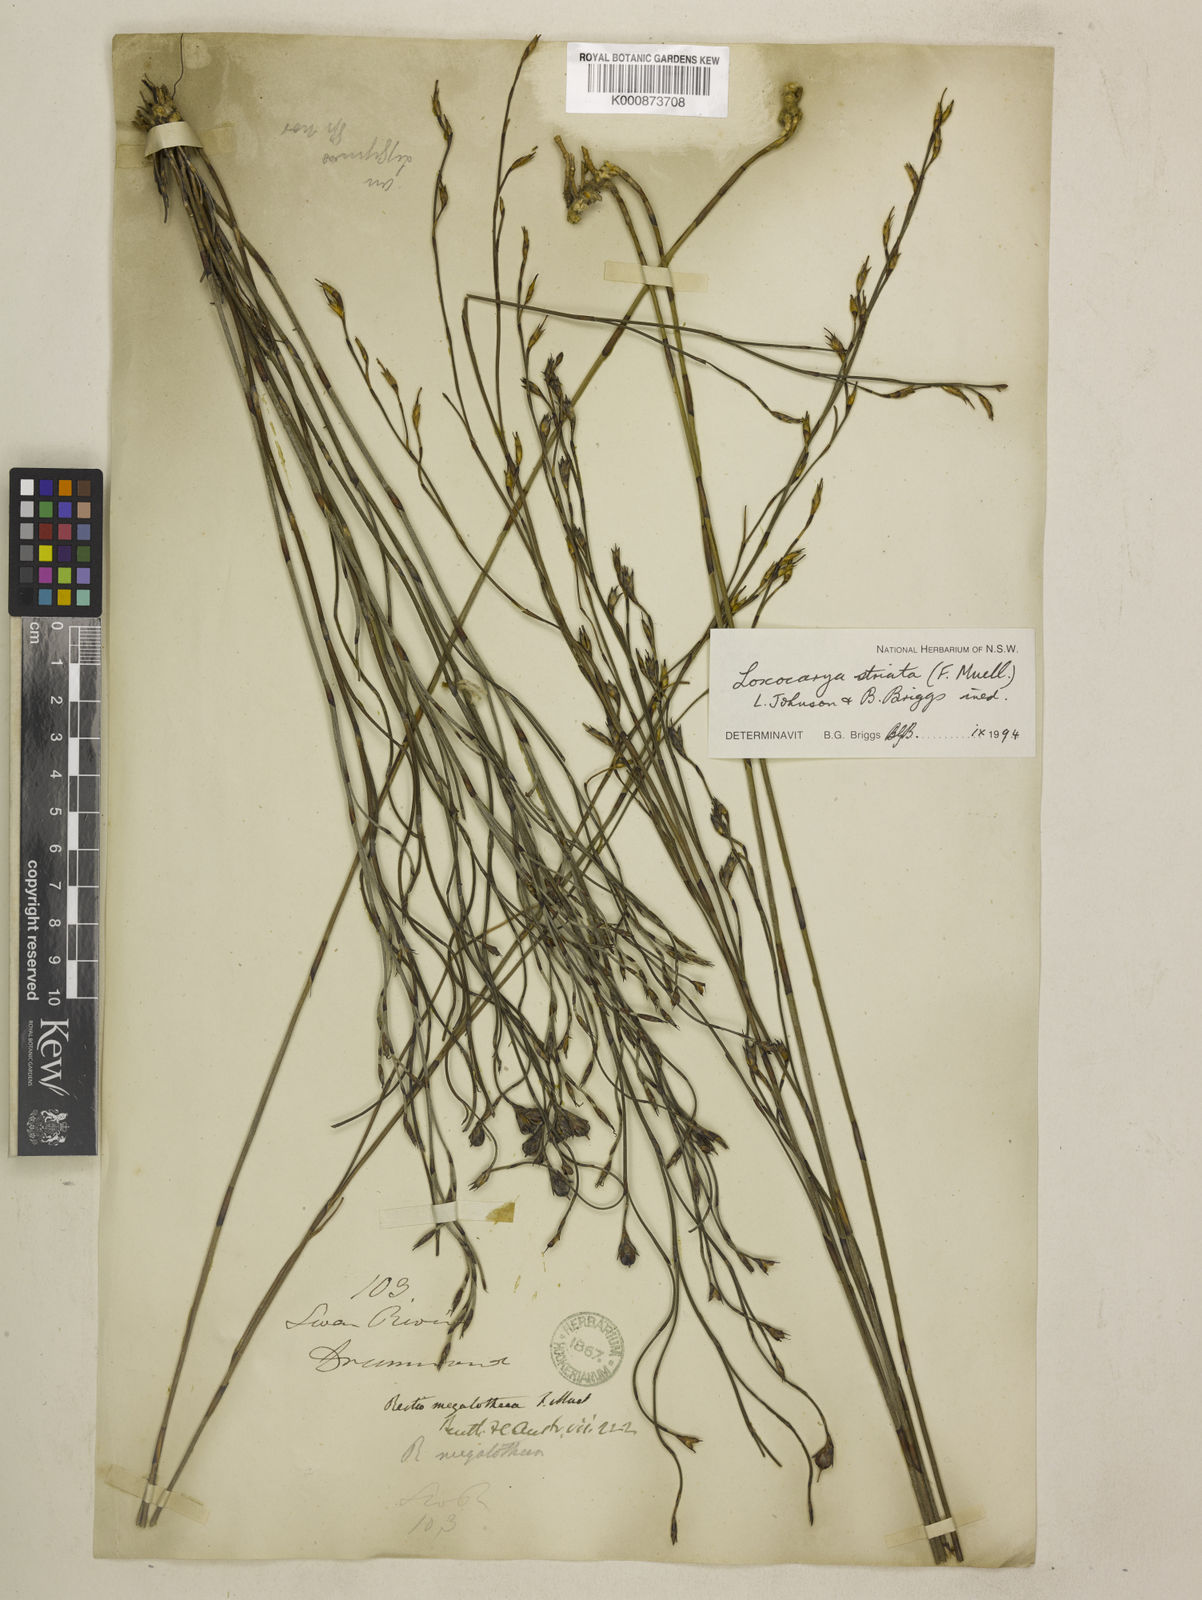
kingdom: Plantae
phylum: Tracheophyta
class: Liliopsida
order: Poales
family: Restionaceae
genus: Loxocarya
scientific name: Loxocarya striata
